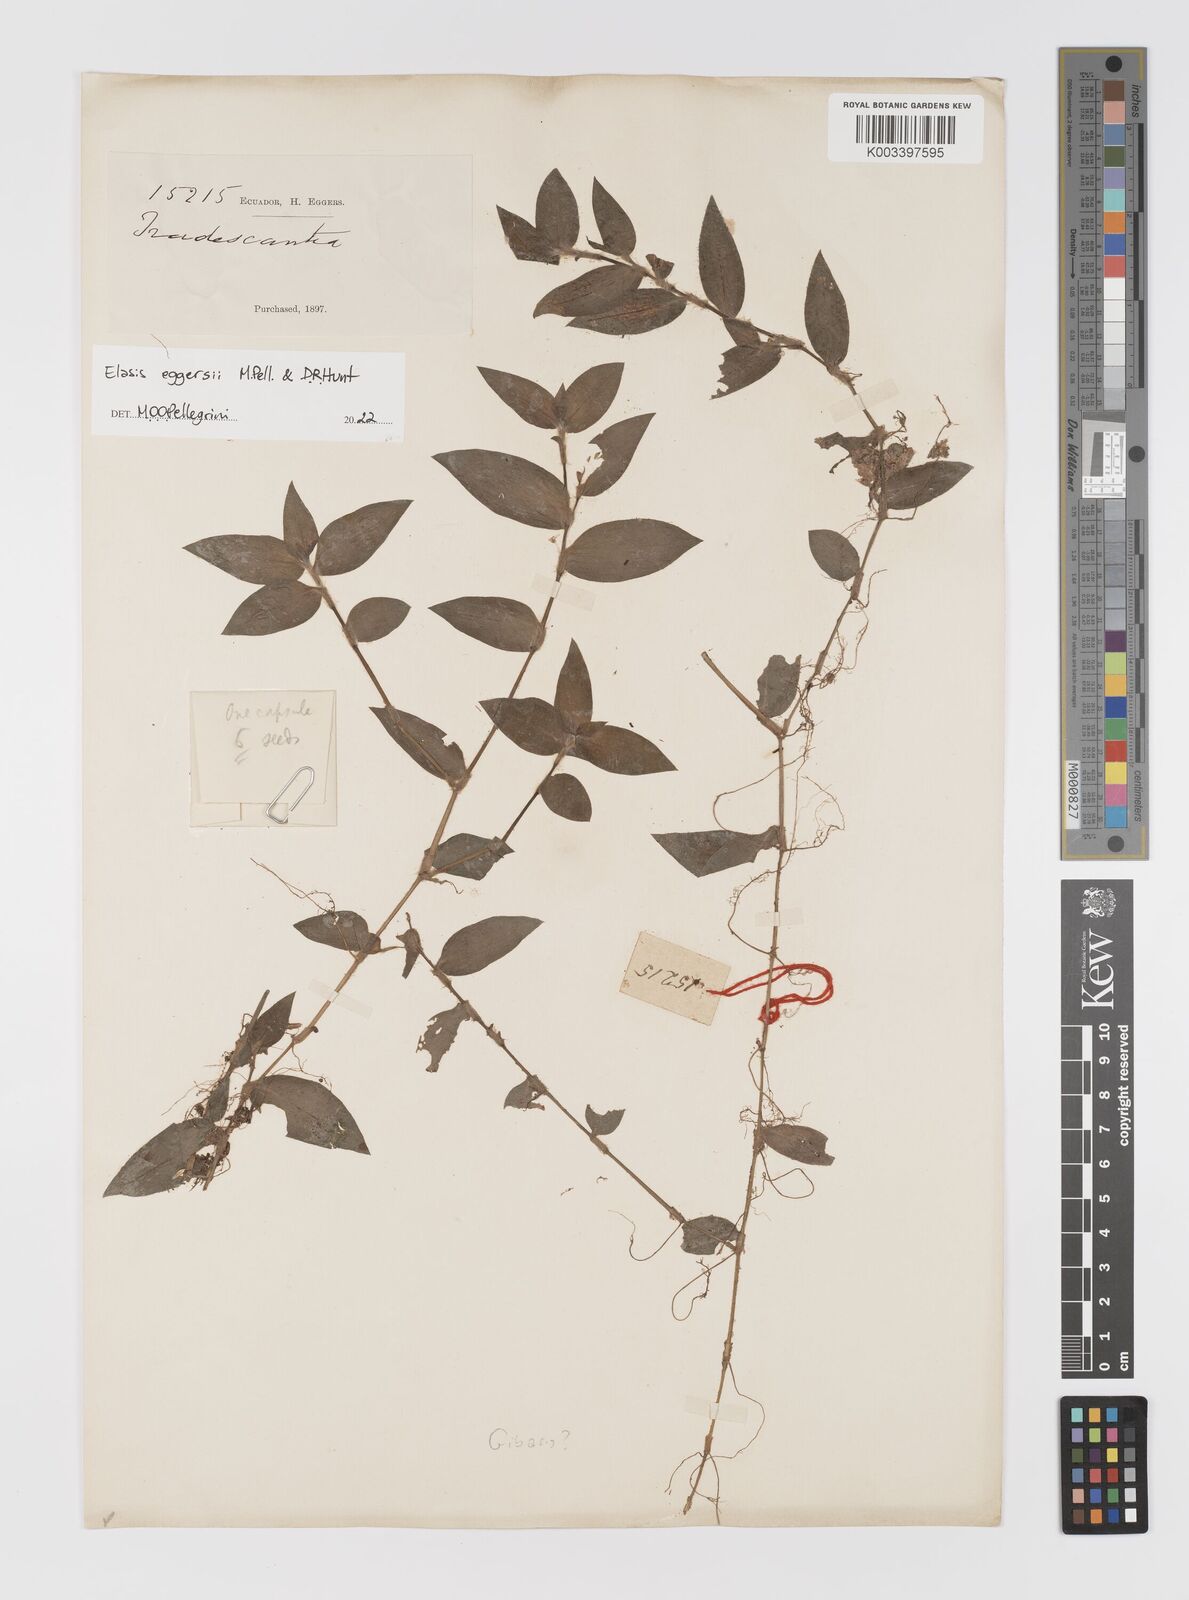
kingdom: Plantae
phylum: Tracheophyta
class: Liliopsida
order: Commelinales
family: Commelinaceae
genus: Elasis
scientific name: Elasis
